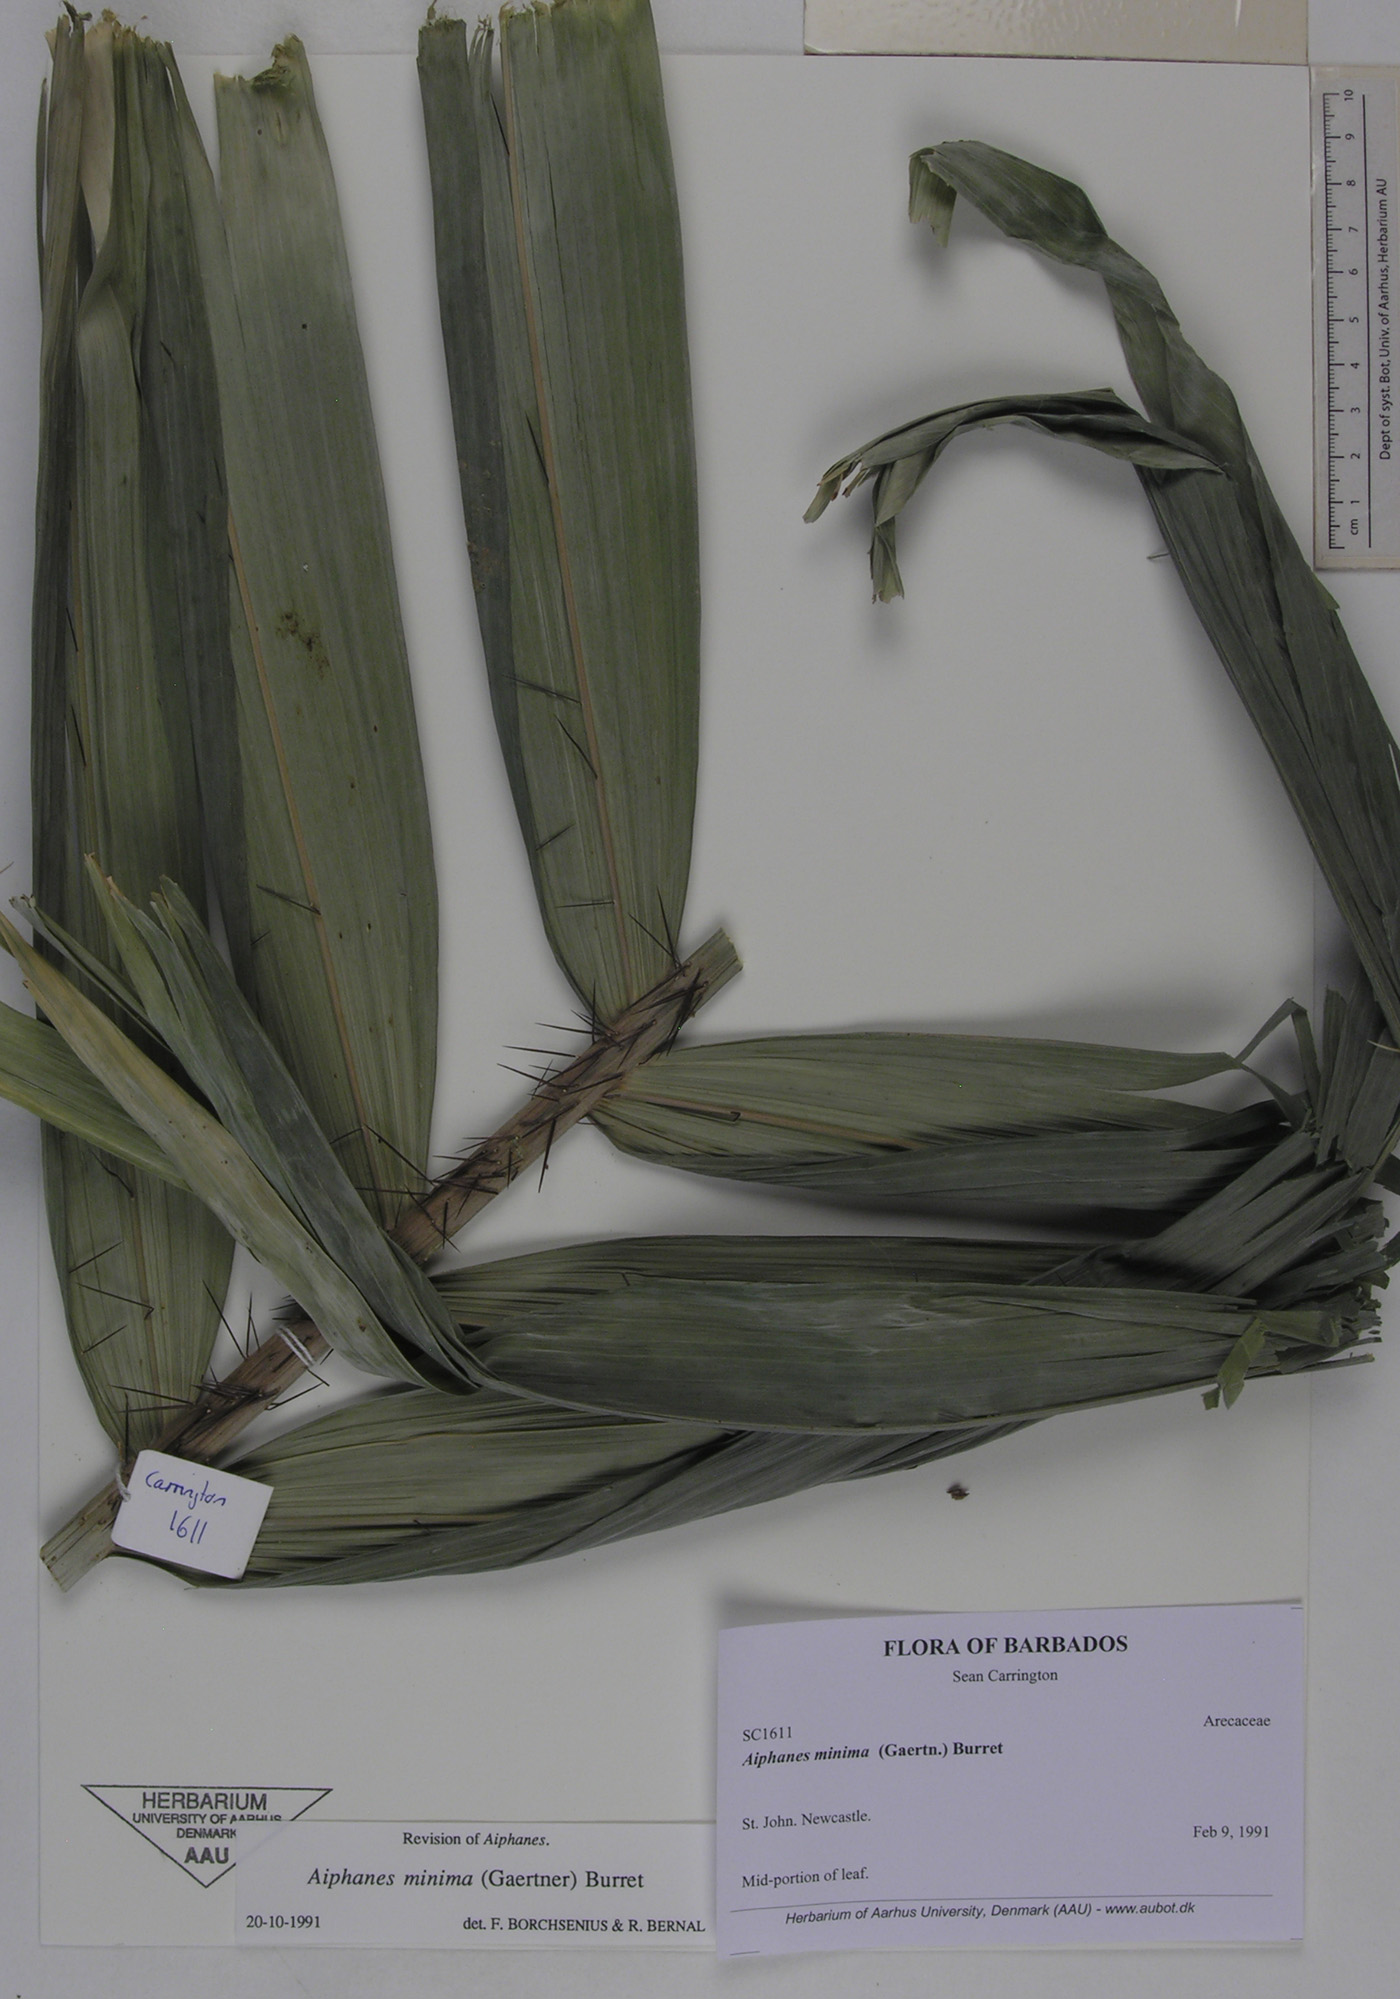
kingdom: Plantae
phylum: Tracheophyta
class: Liliopsida
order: Arecales
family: Arecaceae
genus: Aiphanes
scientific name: Aiphanes minima
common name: Grigri
